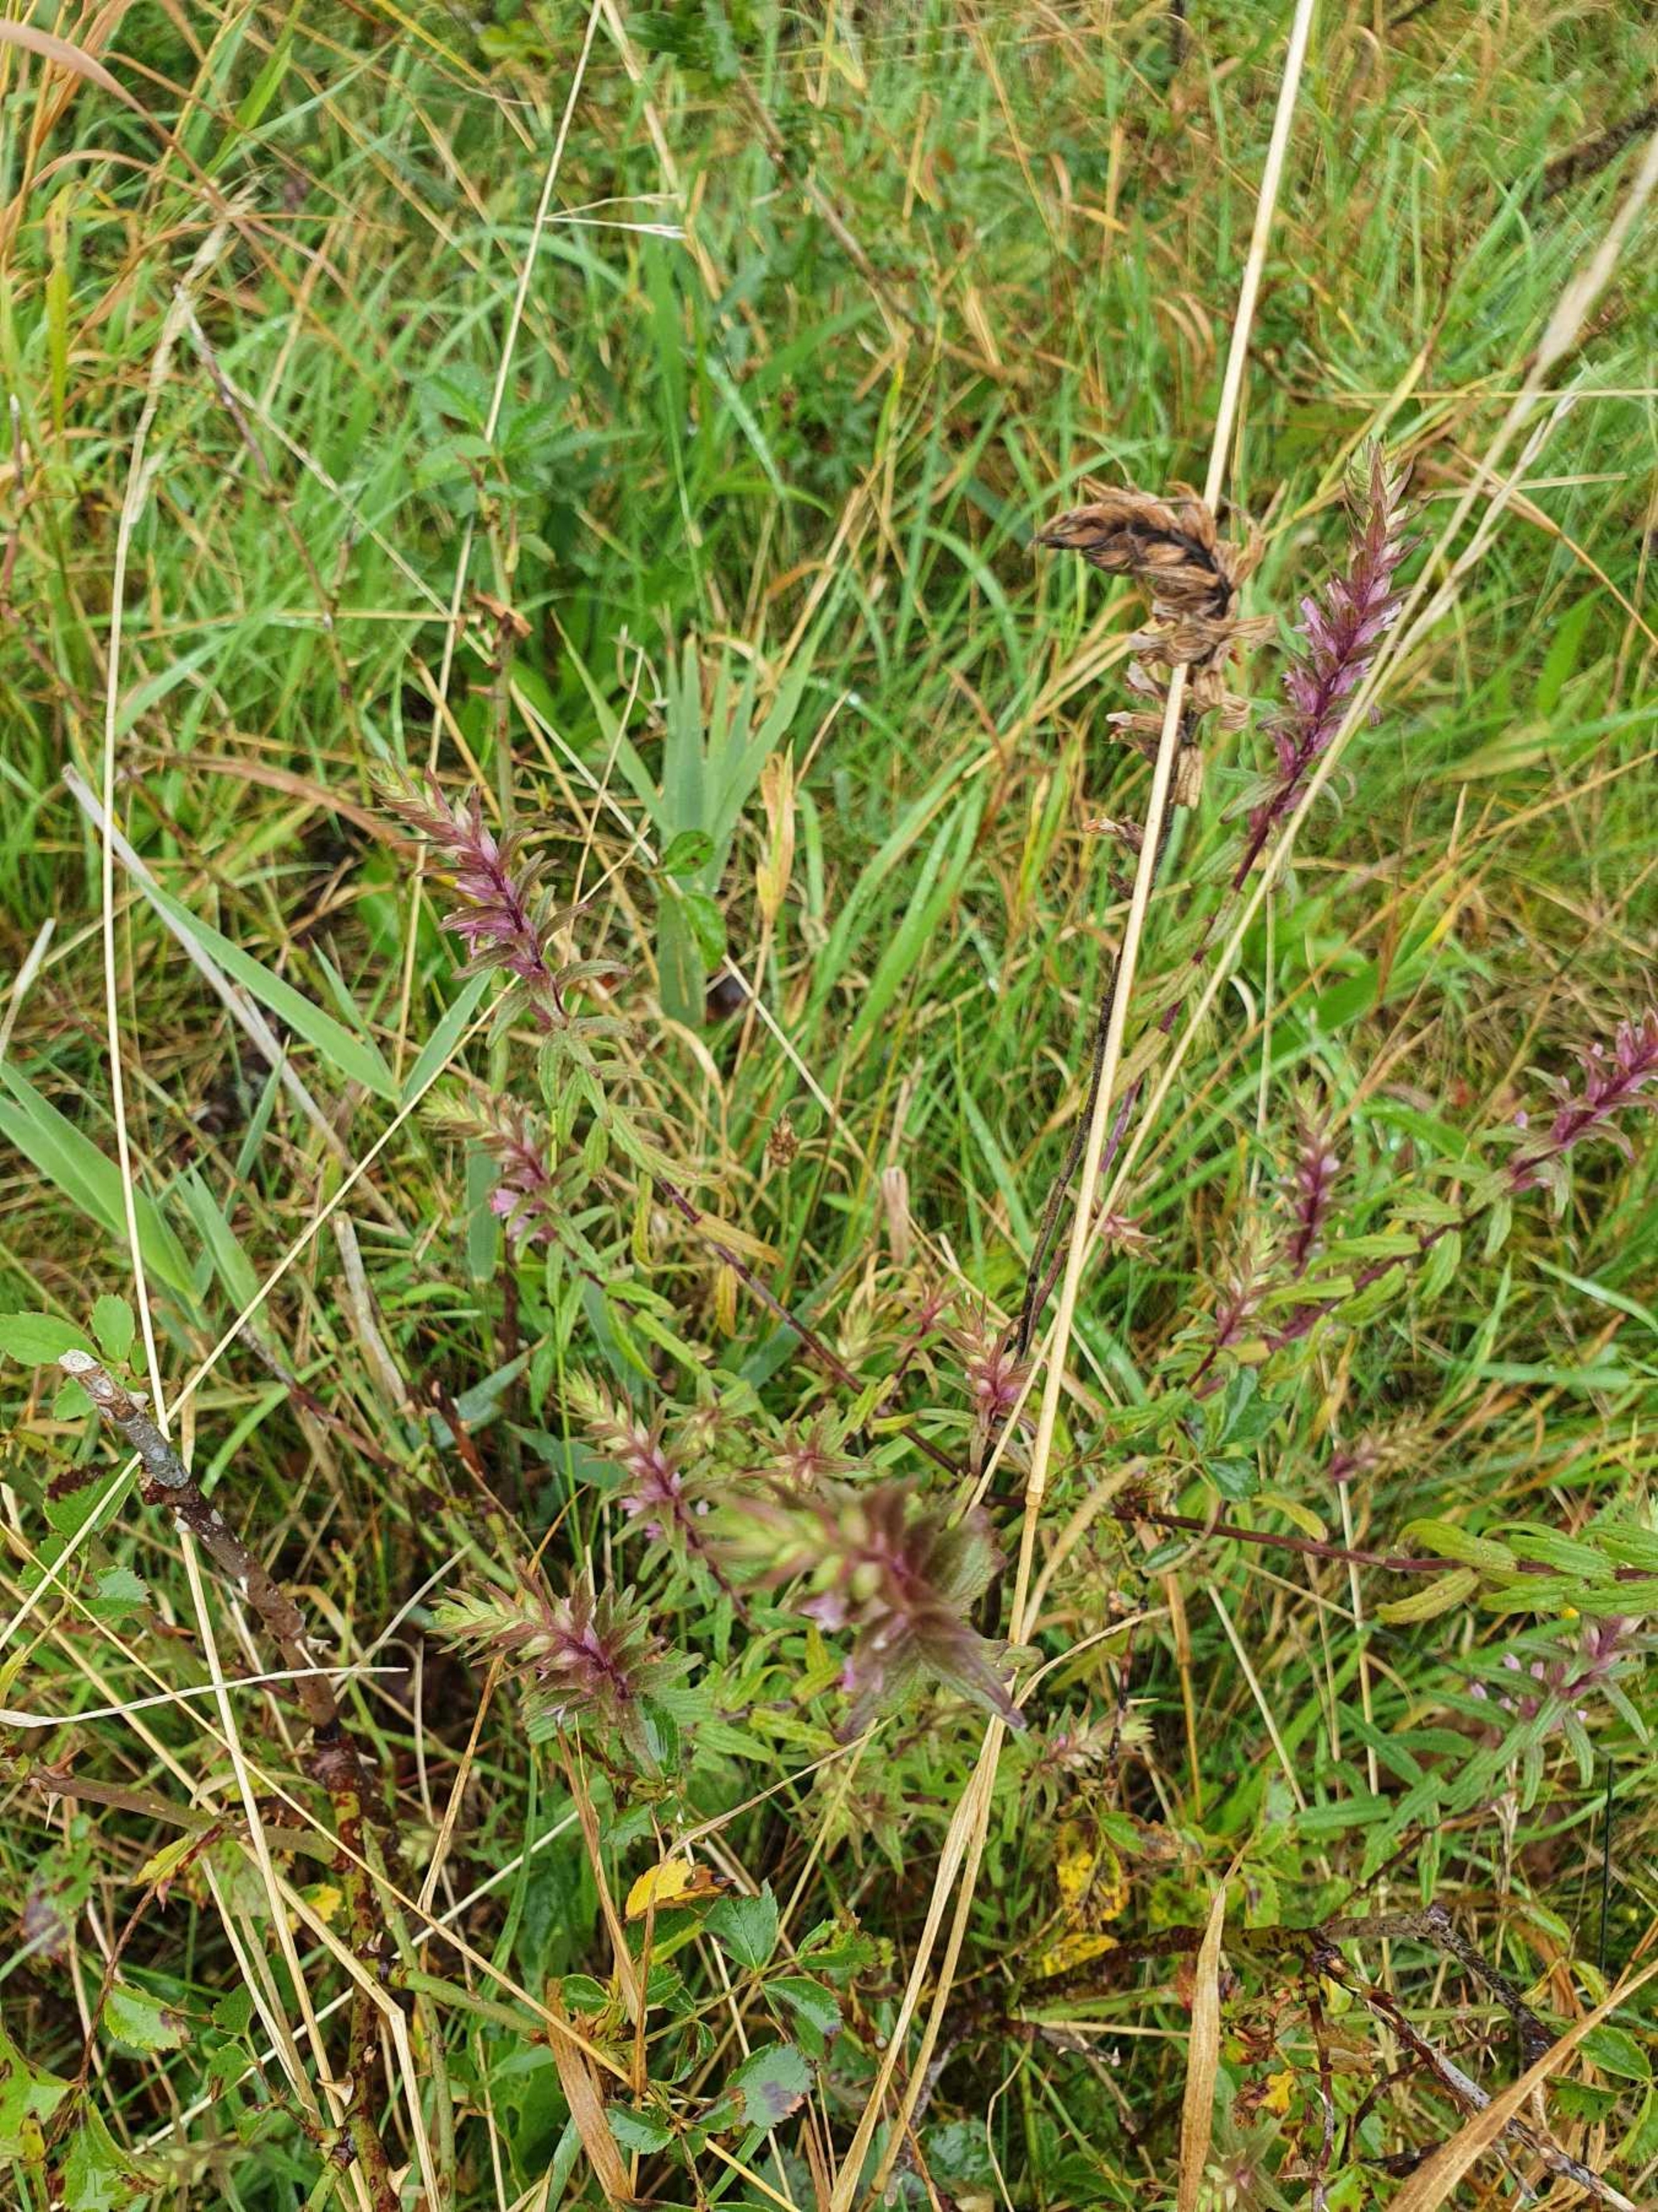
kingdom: Plantae
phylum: Tracheophyta
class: Magnoliopsida
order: Lamiales
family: Orobanchaceae
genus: Odontites
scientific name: Odontites vulgaris
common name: Høst-rødtop
